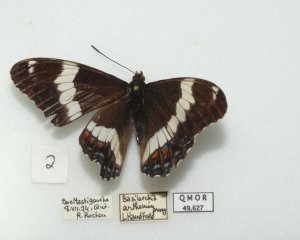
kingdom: Animalia
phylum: Arthropoda
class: Insecta
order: Lepidoptera
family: Nymphalidae
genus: Limenitis
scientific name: Limenitis arthemis
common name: Red-spotted Admiral
